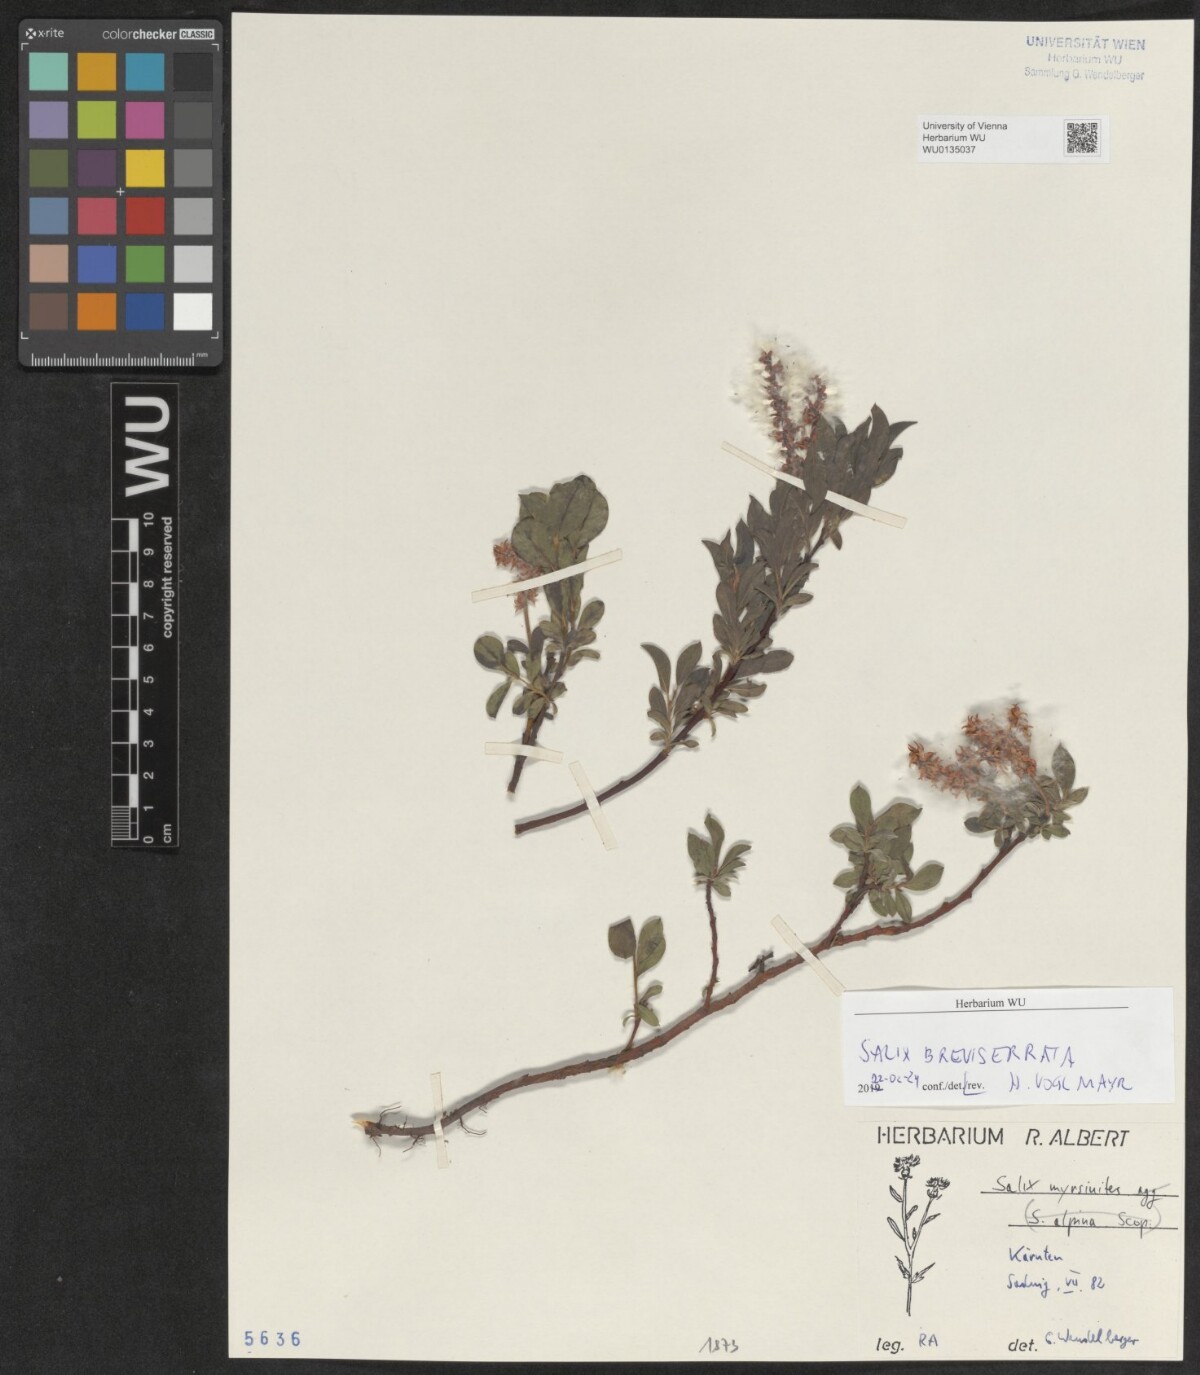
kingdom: Plantae
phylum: Tracheophyta
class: Magnoliopsida
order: Malpighiales
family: Salicaceae
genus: Salix
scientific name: Salix breviserrata
